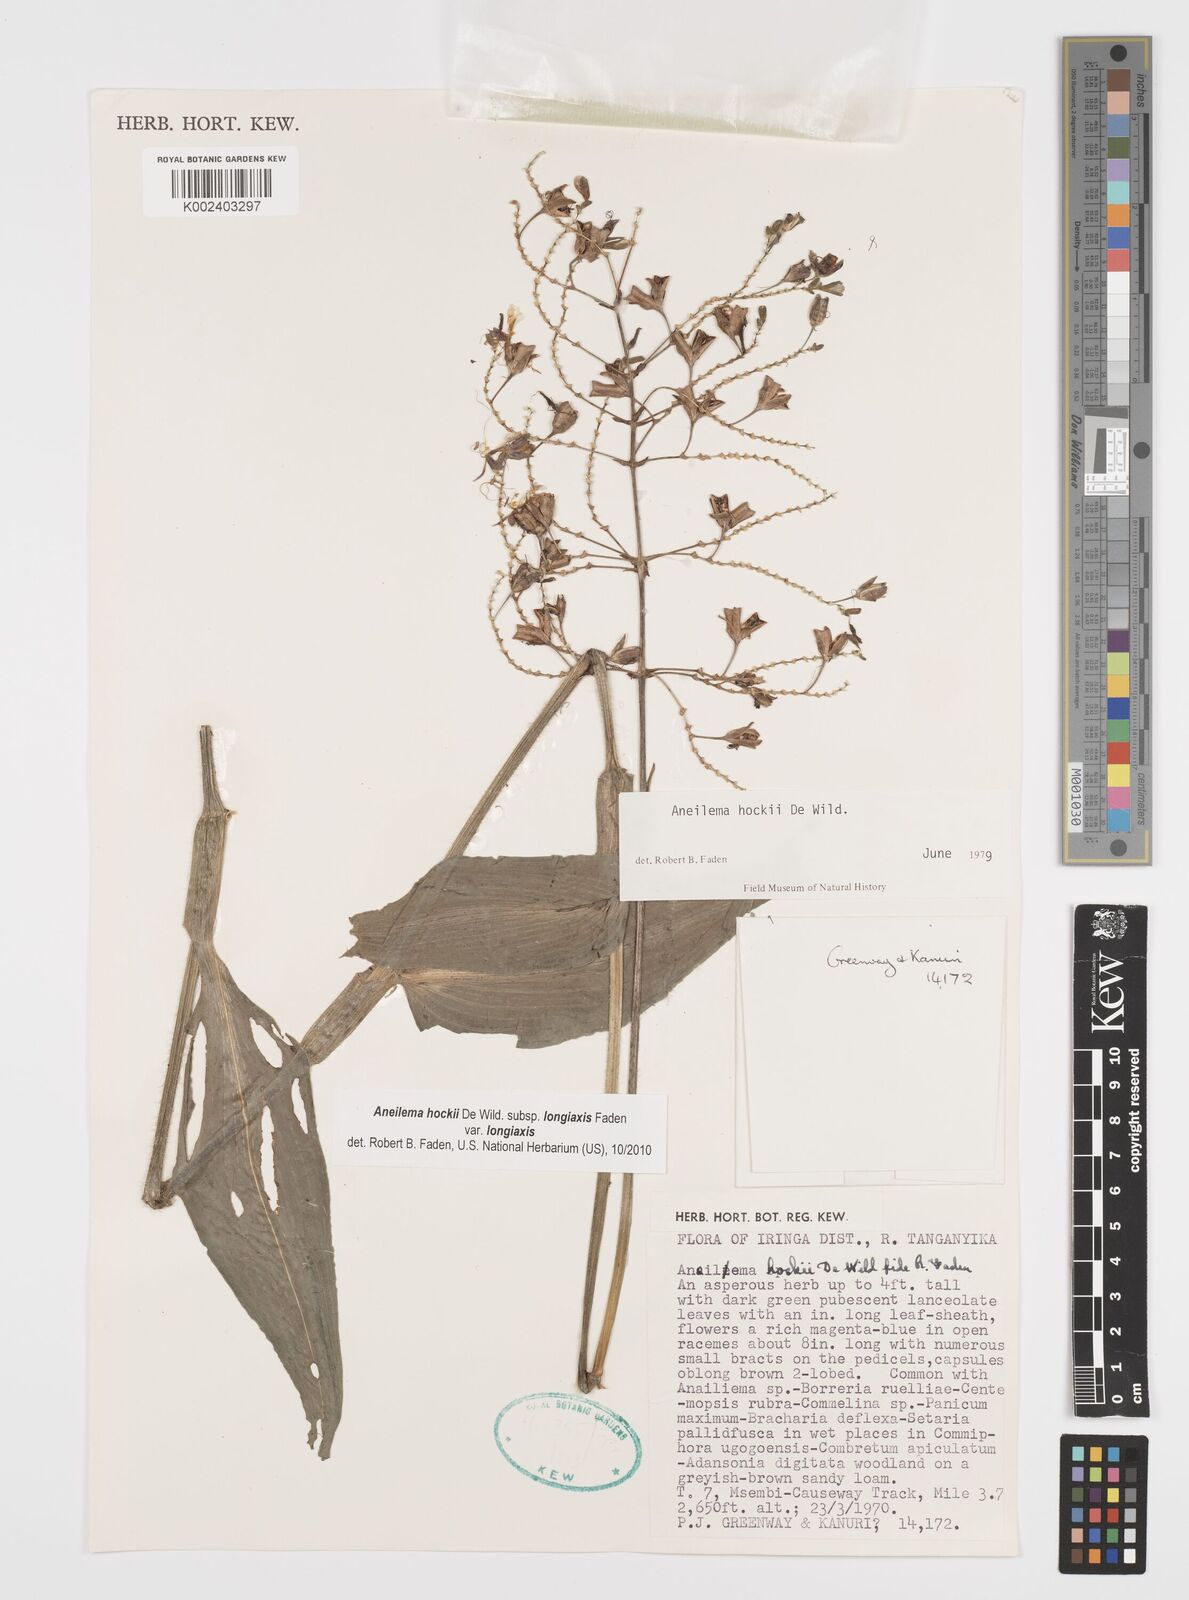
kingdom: Plantae
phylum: Tracheophyta
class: Liliopsida
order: Commelinales
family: Commelinaceae
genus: Aneilema
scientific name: Aneilema hockii
